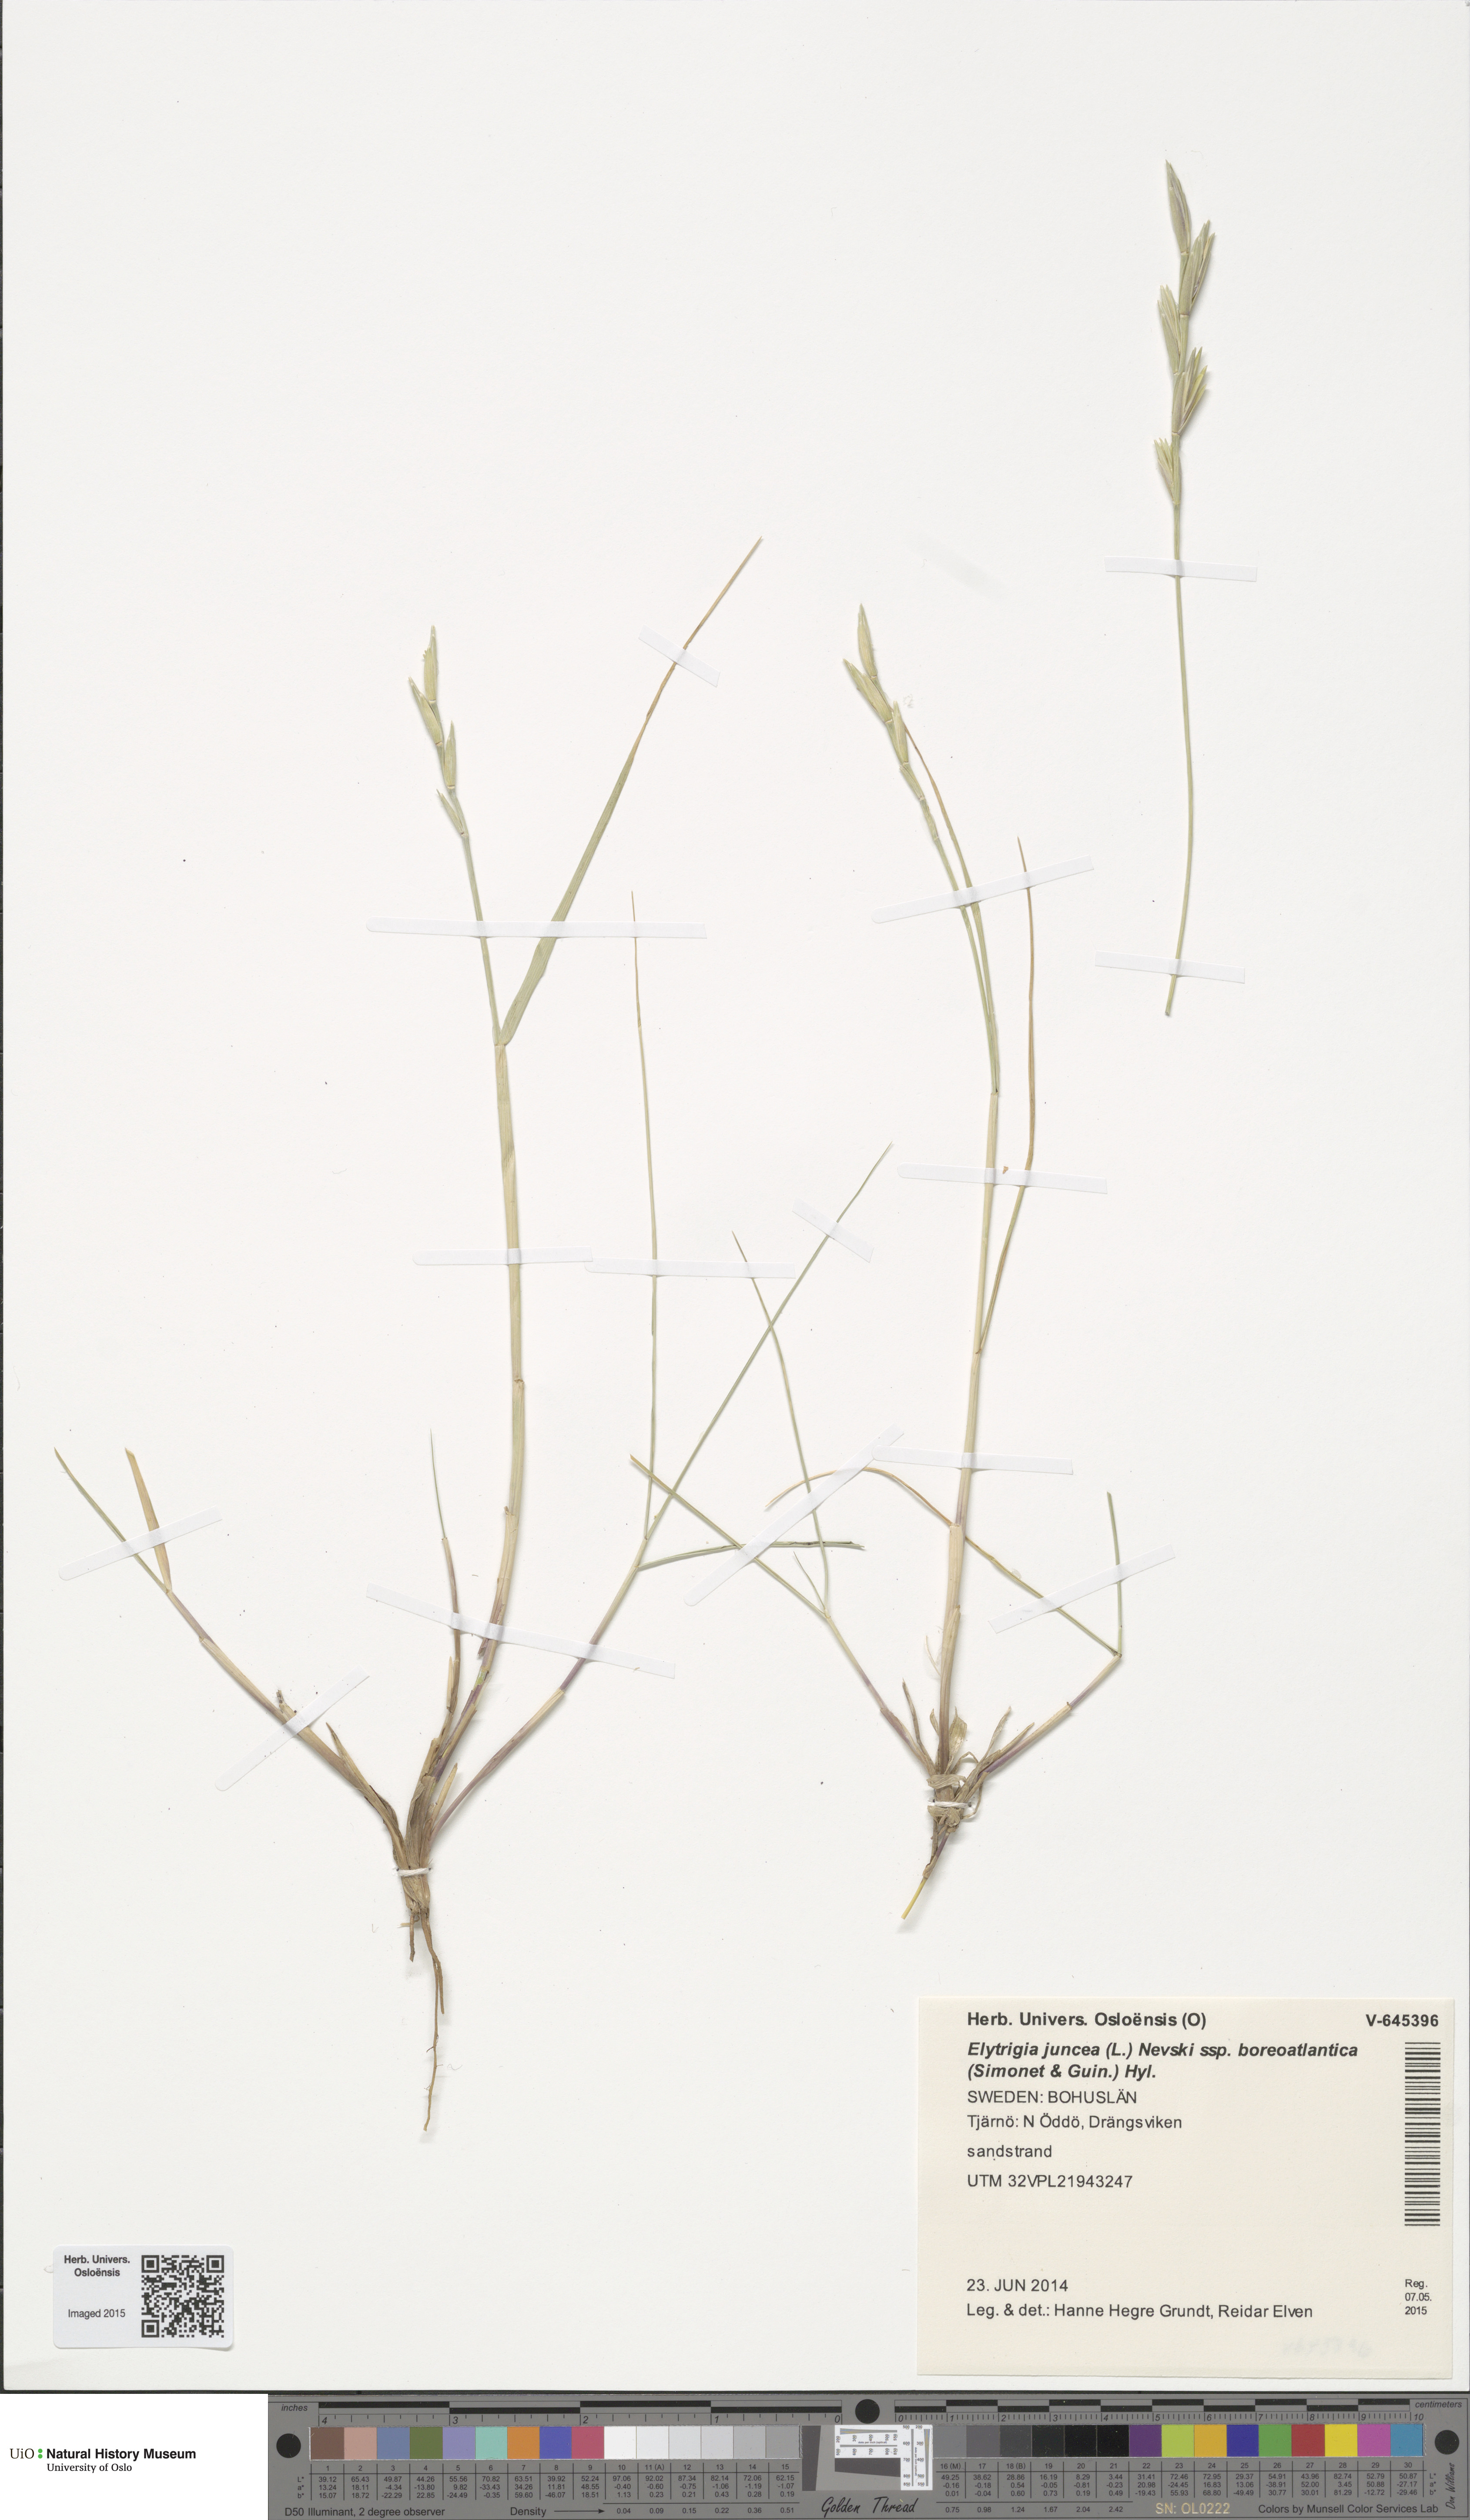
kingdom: Plantae
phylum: Tracheophyta
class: Liliopsida
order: Poales
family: Poaceae
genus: Thinopyrum
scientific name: Thinopyrum junceiforme
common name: Sea couch
